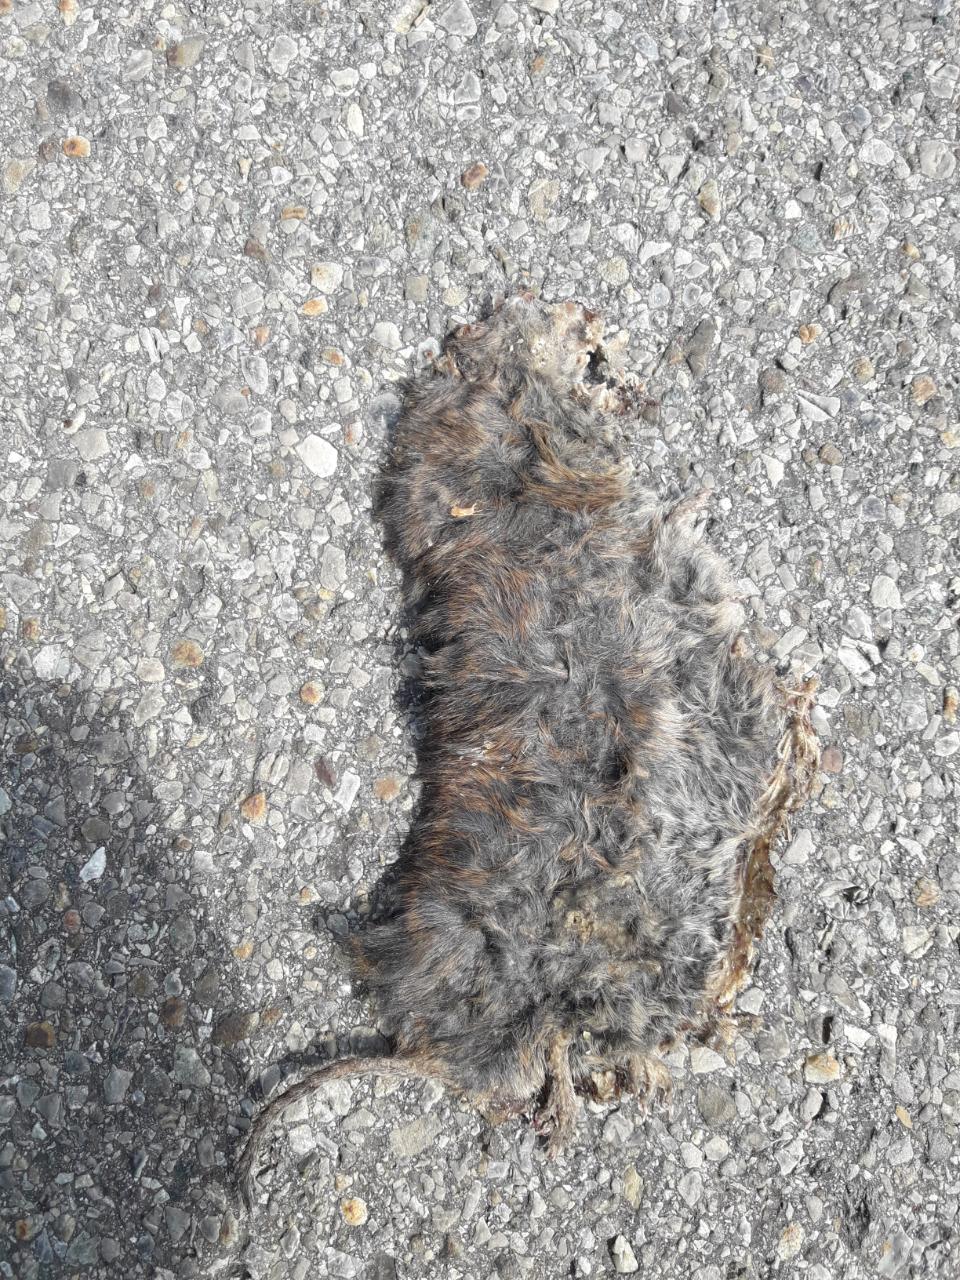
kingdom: Animalia
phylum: Chordata
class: Mammalia
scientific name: Mammalia
